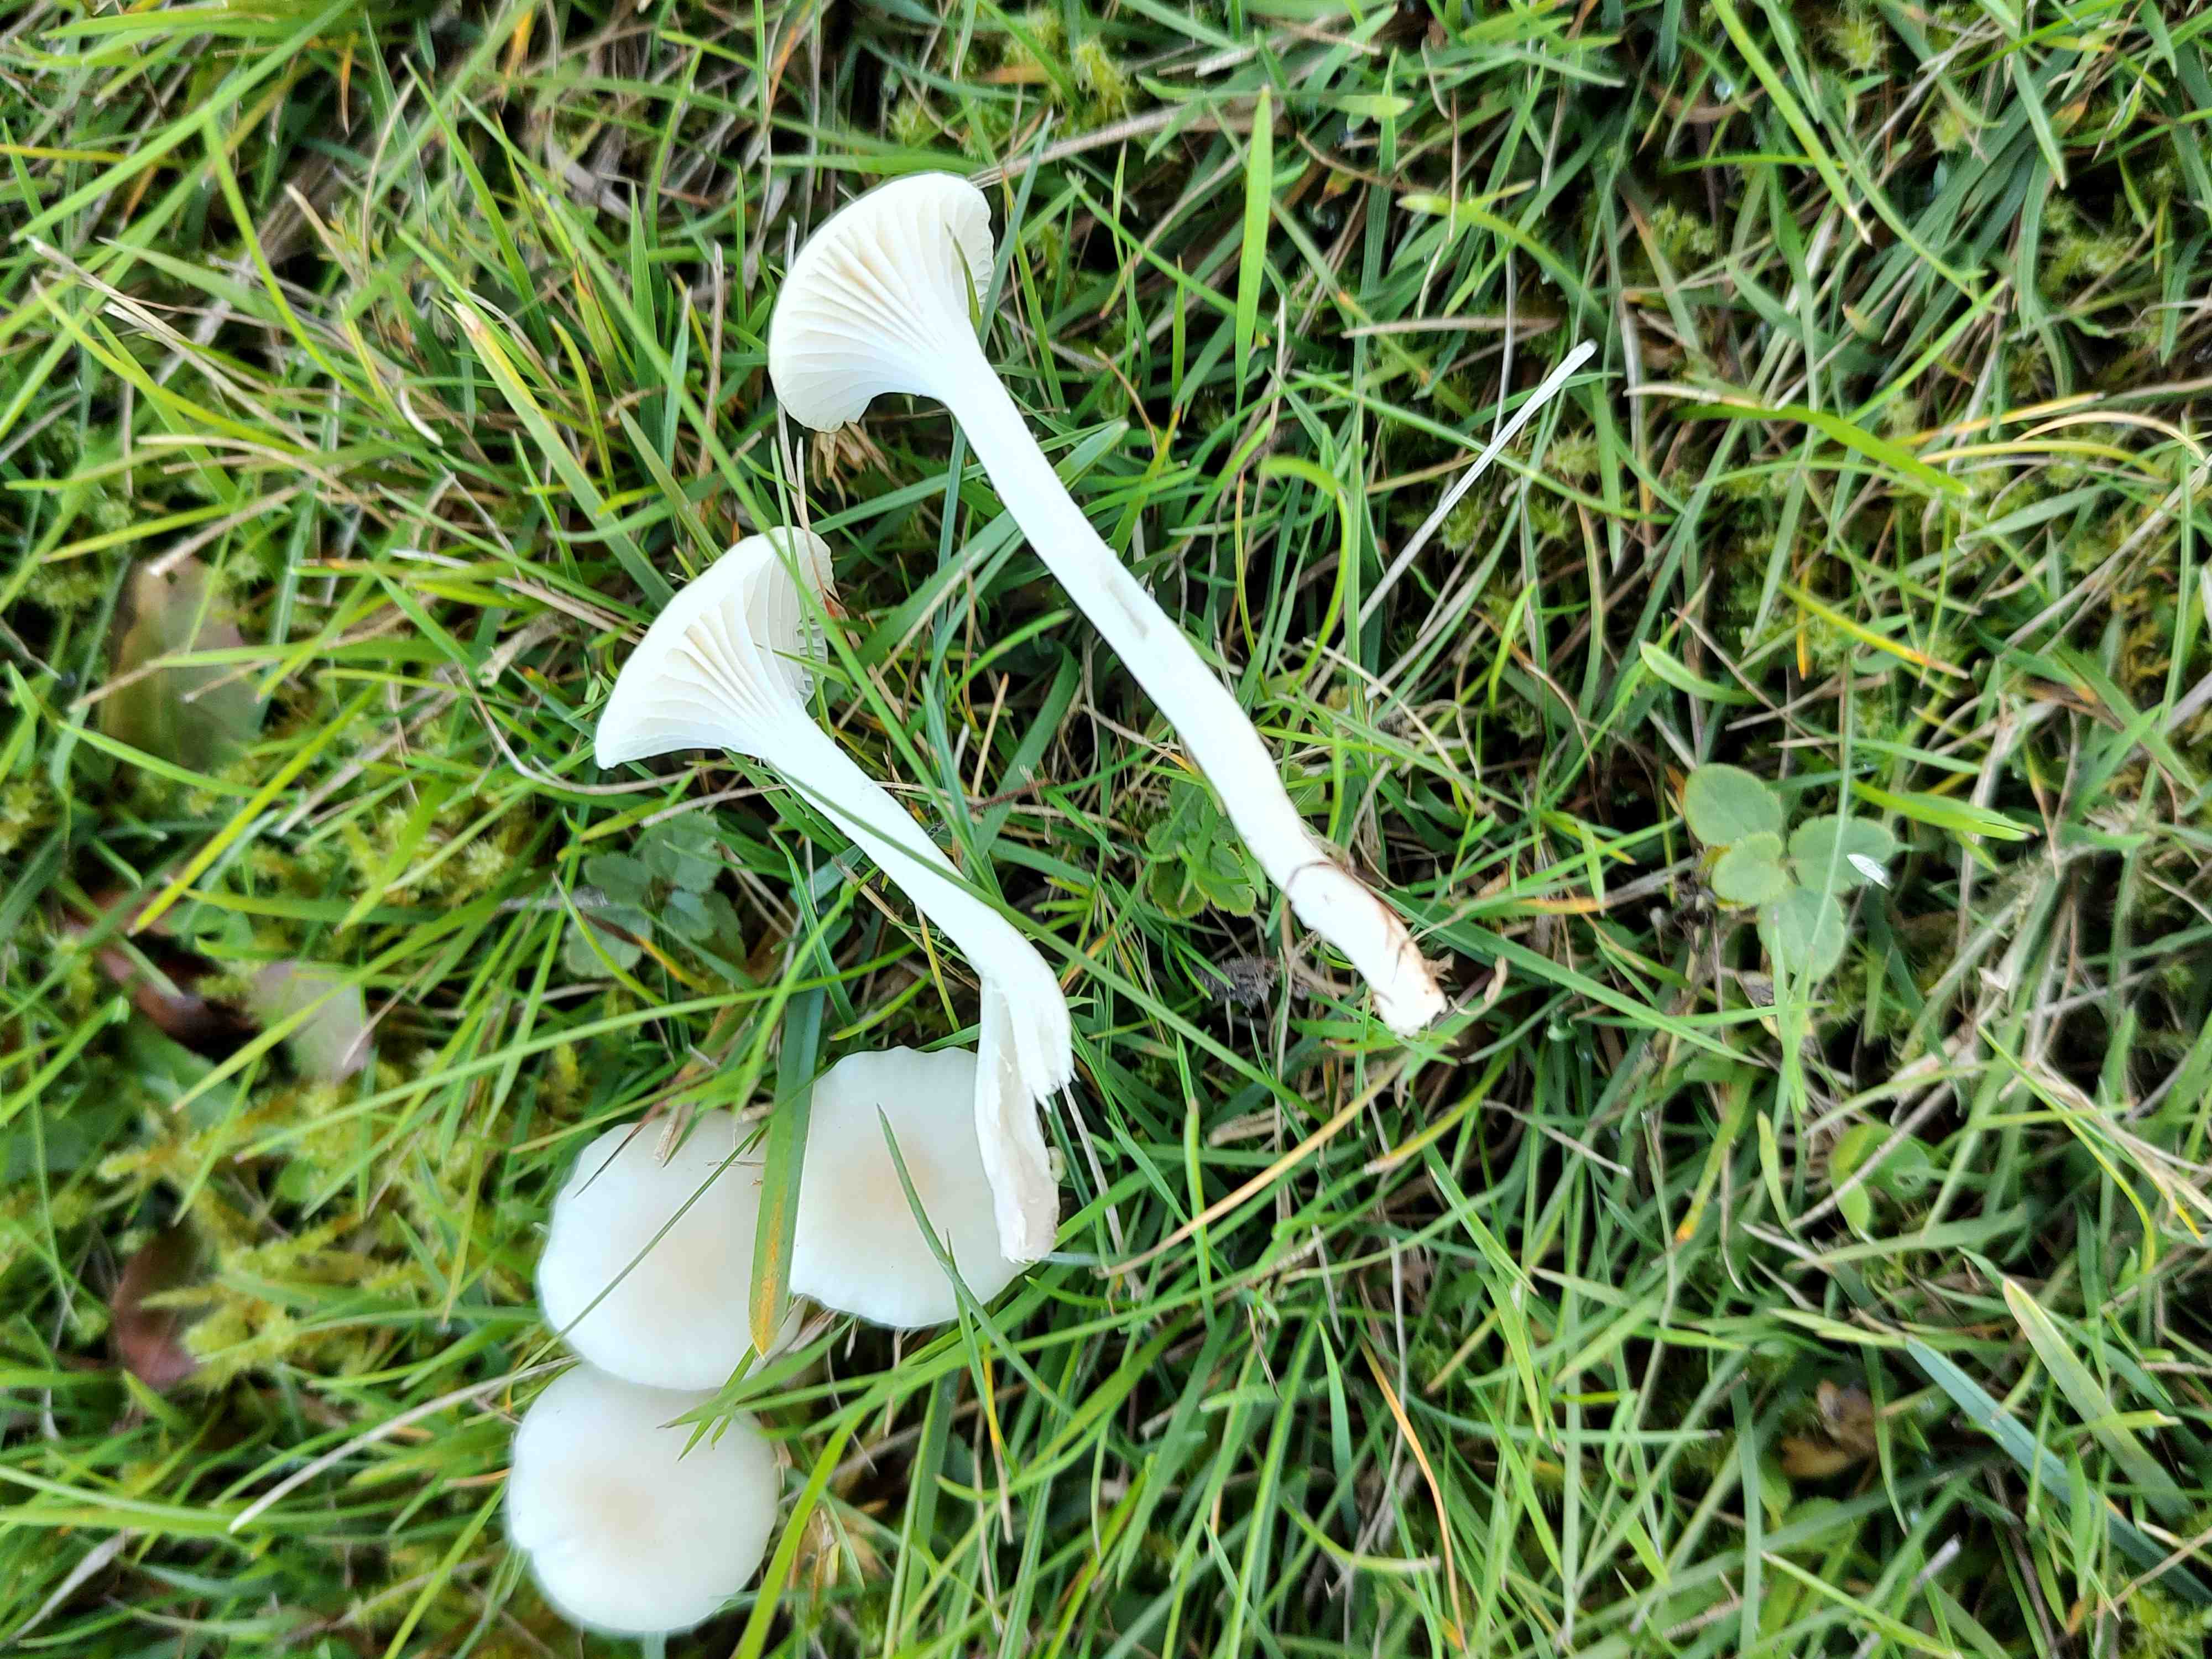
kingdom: Fungi
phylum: Basidiomycota
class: Agaricomycetes
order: Agaricales
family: Hygrophoraceae
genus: Cuphophyllus
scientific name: Cuphophyllus virgineus
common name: snehvid vokshat
